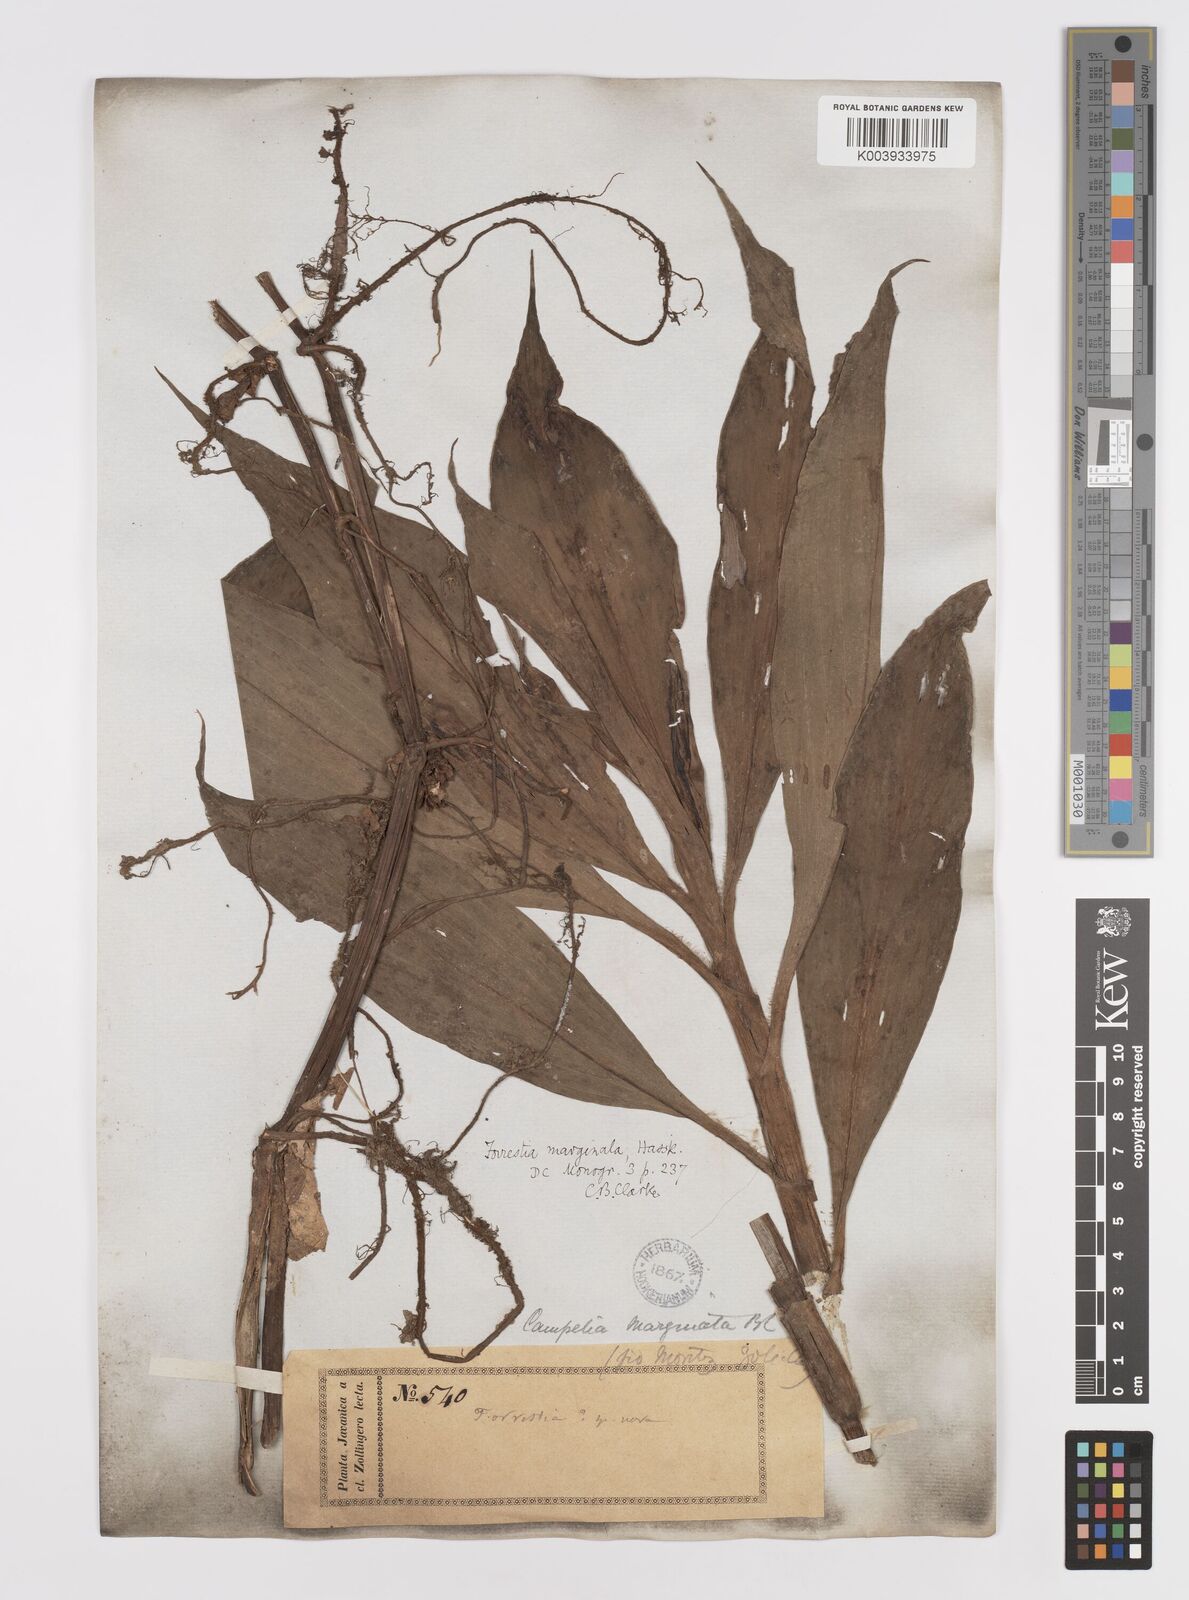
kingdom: Plantae
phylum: Tracheophyta
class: Liliopsida
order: Commelinales
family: Commelinaceae
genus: Amischotolype
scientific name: Amischotolype marginata
